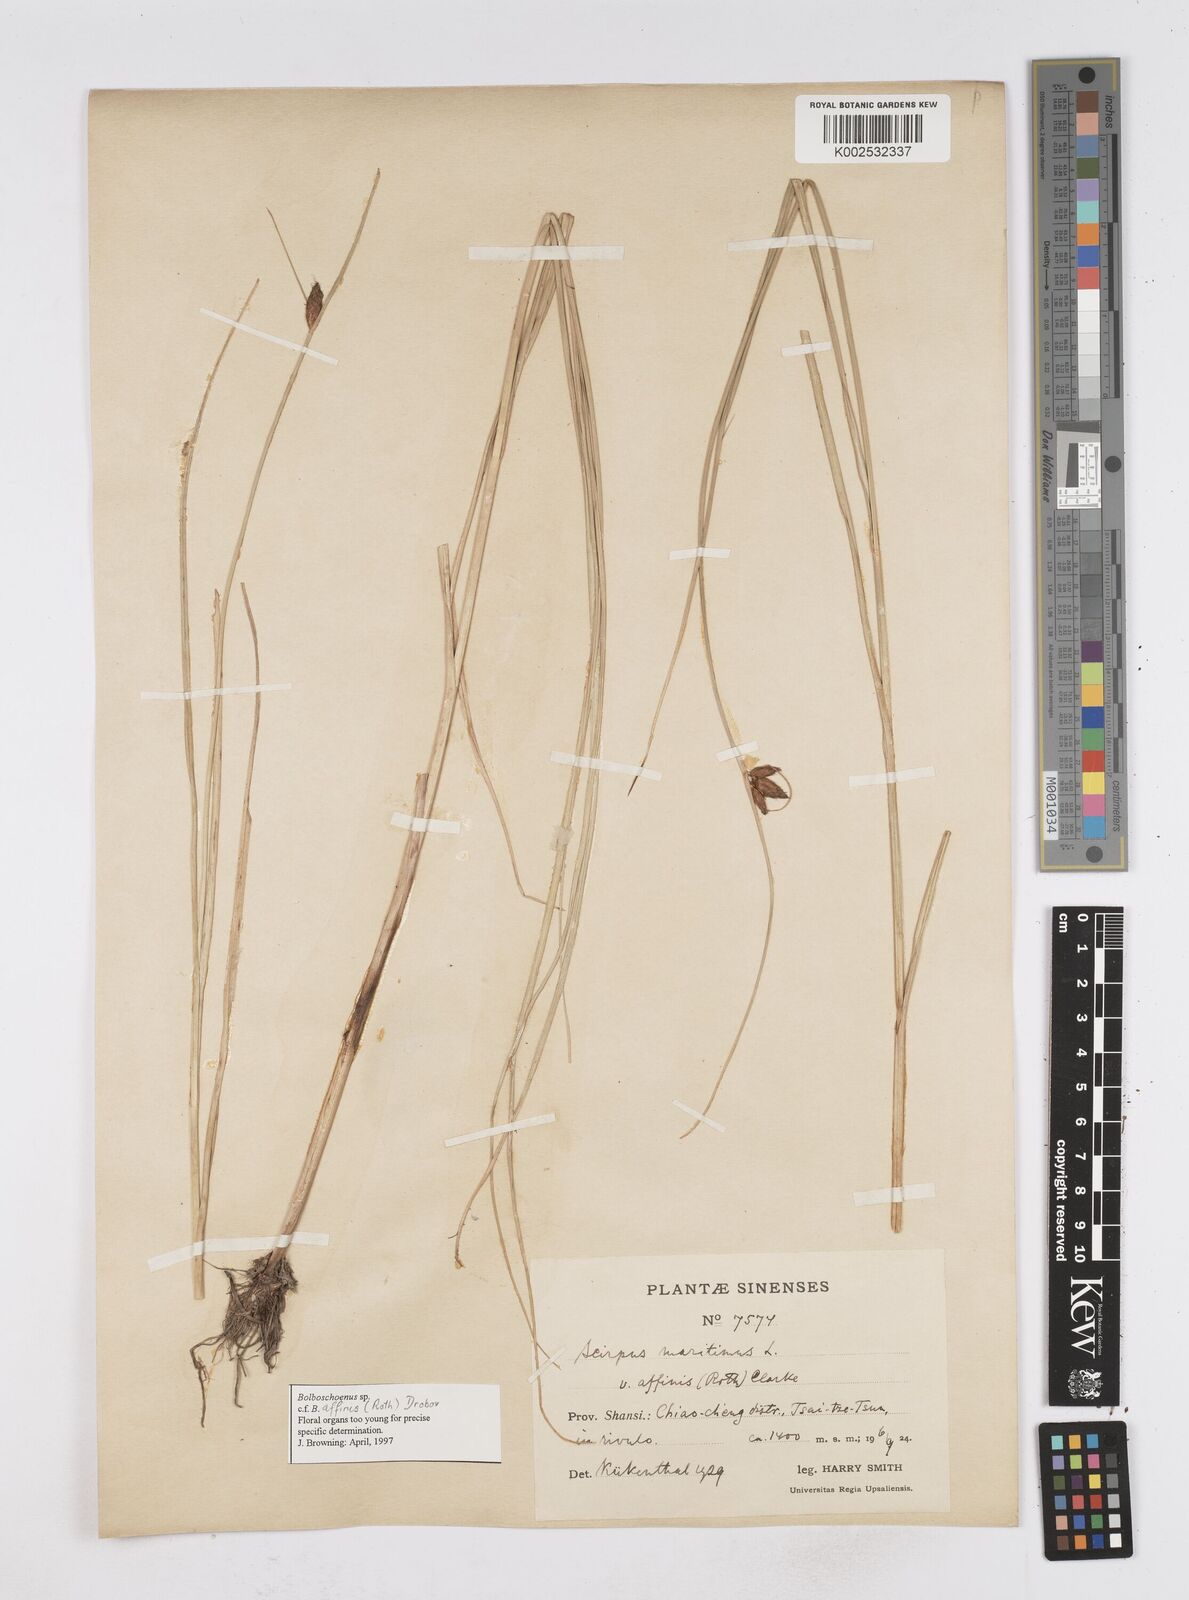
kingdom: Plantae
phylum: Tracheophyta
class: Liliopsida
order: Poales
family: Cyperaceae
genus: Bolboschoenus
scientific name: Bolboschoenus maritimus
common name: Sea club-rush
